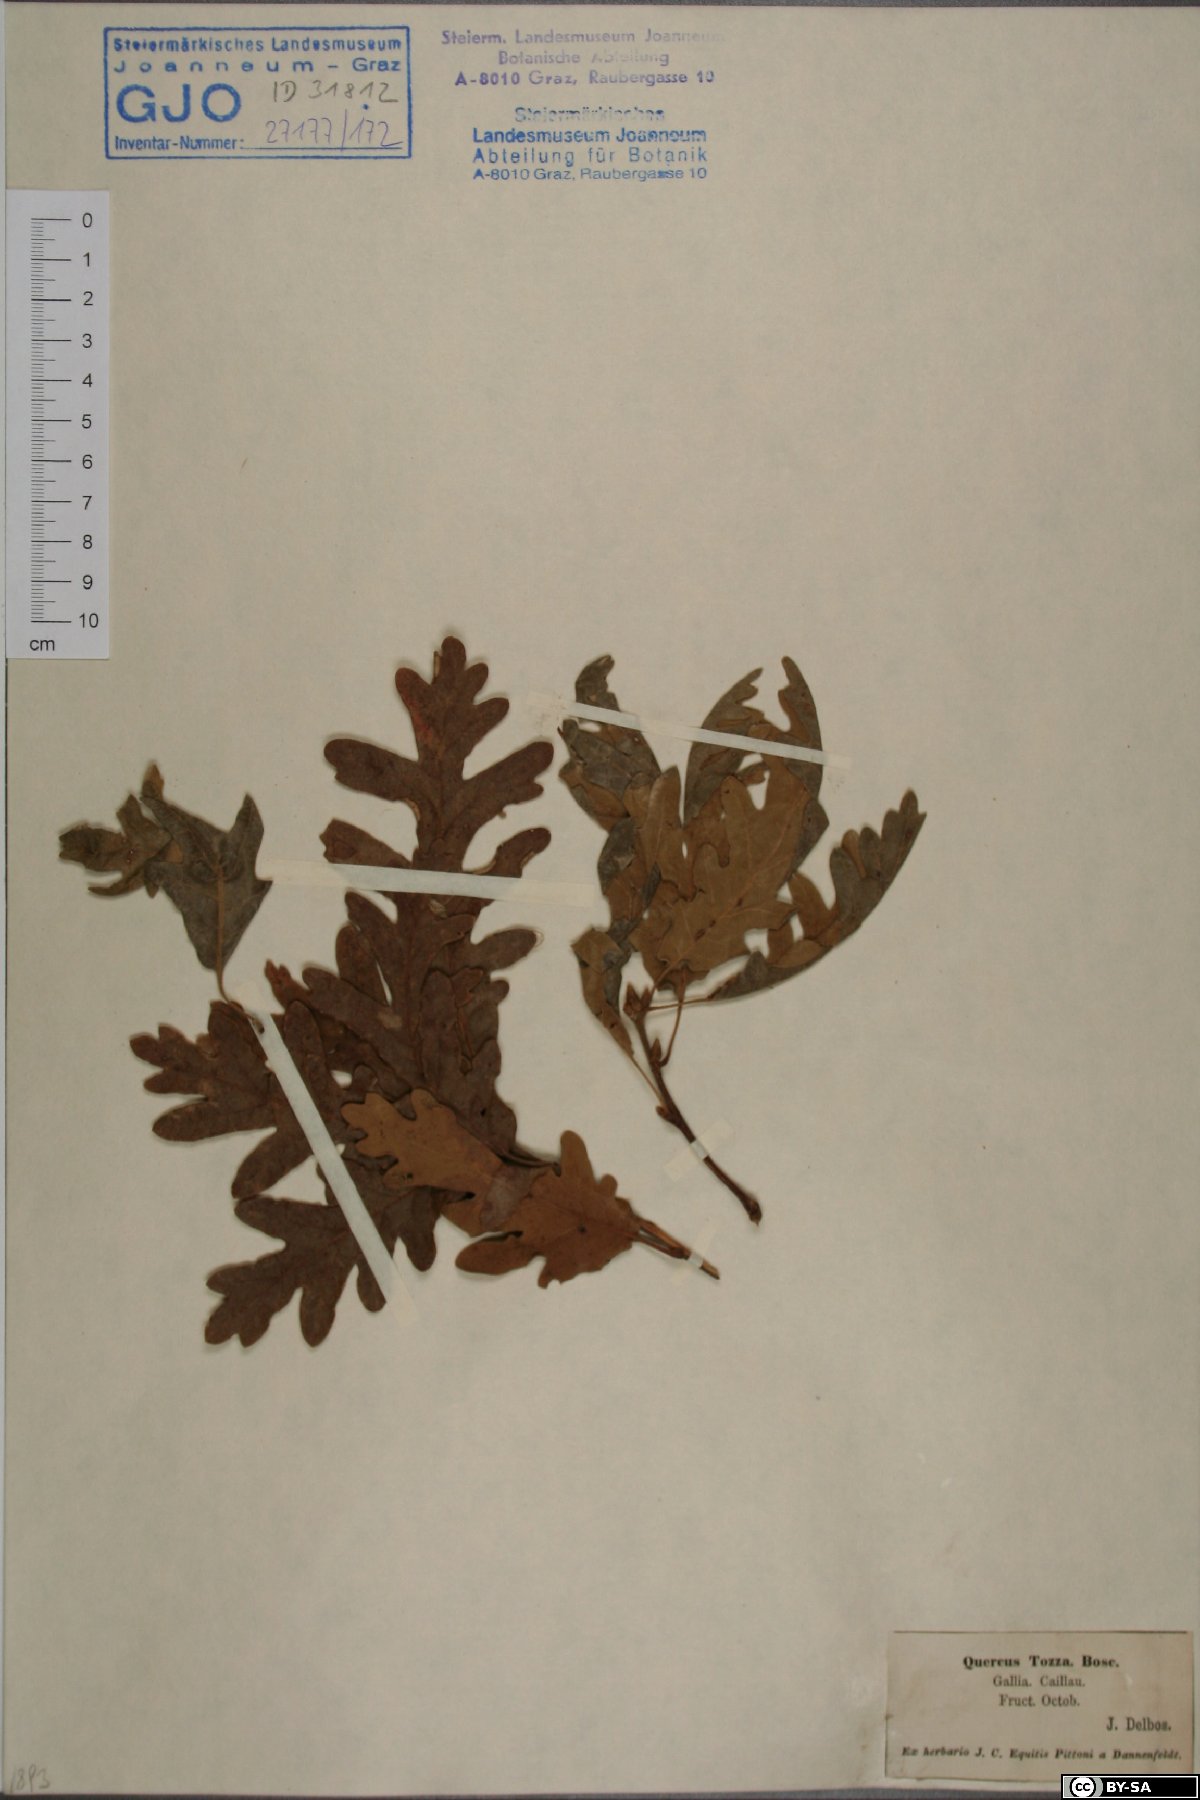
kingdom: Plantae
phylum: Tracheophyta
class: Magnoliopsida
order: Fagales
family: Fagaceae
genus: Quercus
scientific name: Quercus pyrenaica
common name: Pyrenean oak
